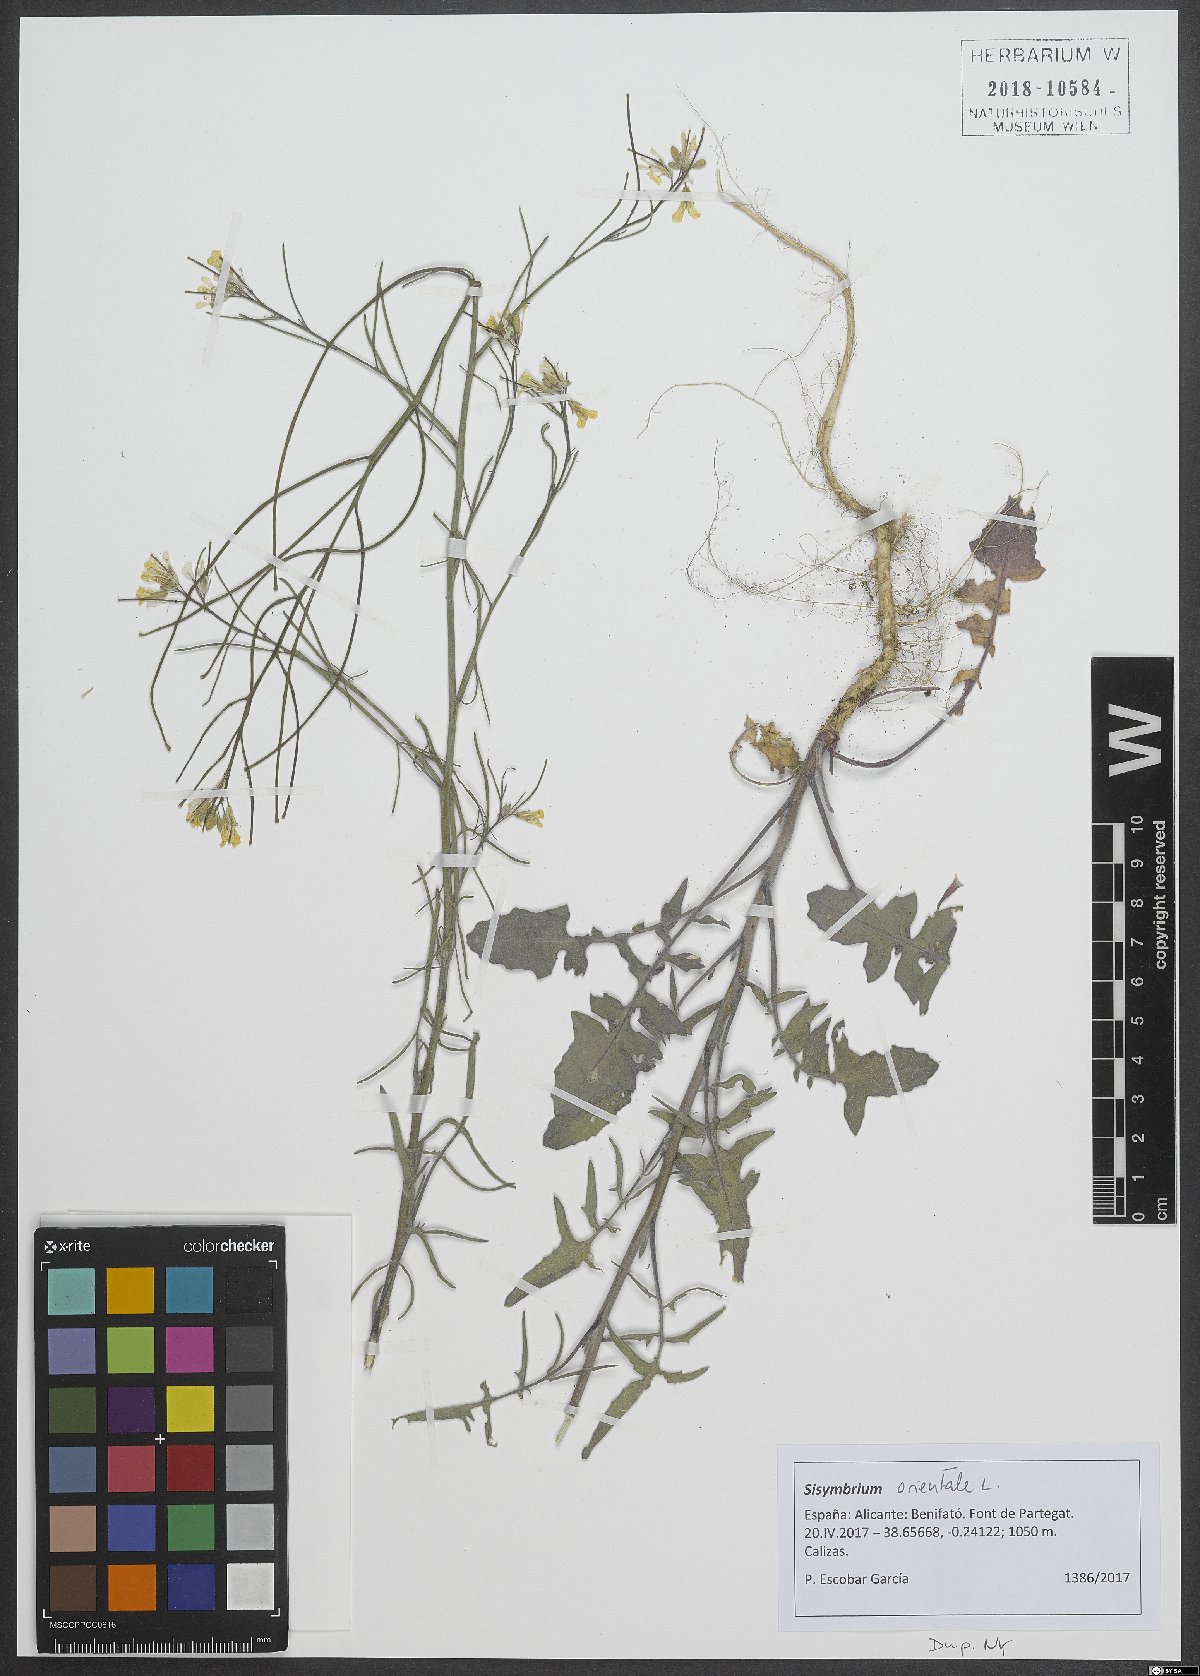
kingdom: Plantae
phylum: Tracheophyta
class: Magnoliopsida
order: Brassicales
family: Brassicaceae
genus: Sisymbrium
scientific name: Sisymbrium orientale
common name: Eastern rocket
